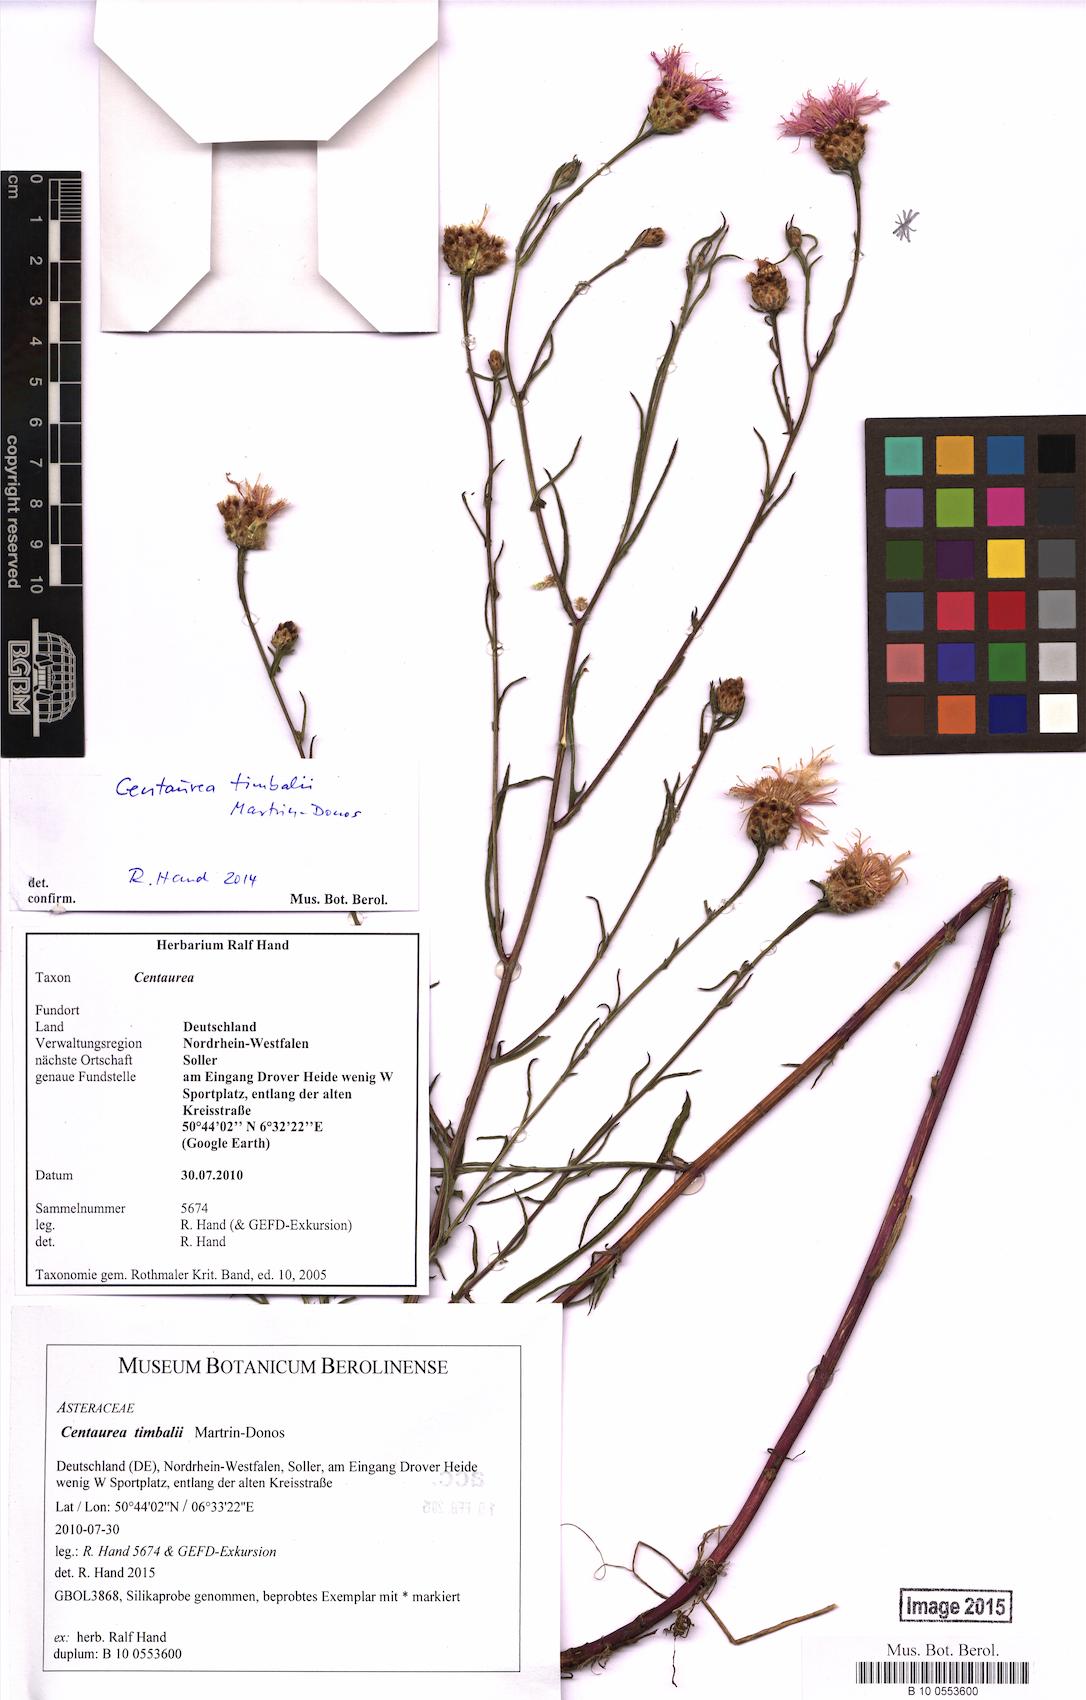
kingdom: Plantae
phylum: Tracheophyta
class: Magnoliopsida
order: Asterales
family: Asteraceae
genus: Centaurea
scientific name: Centaurea timbalii
